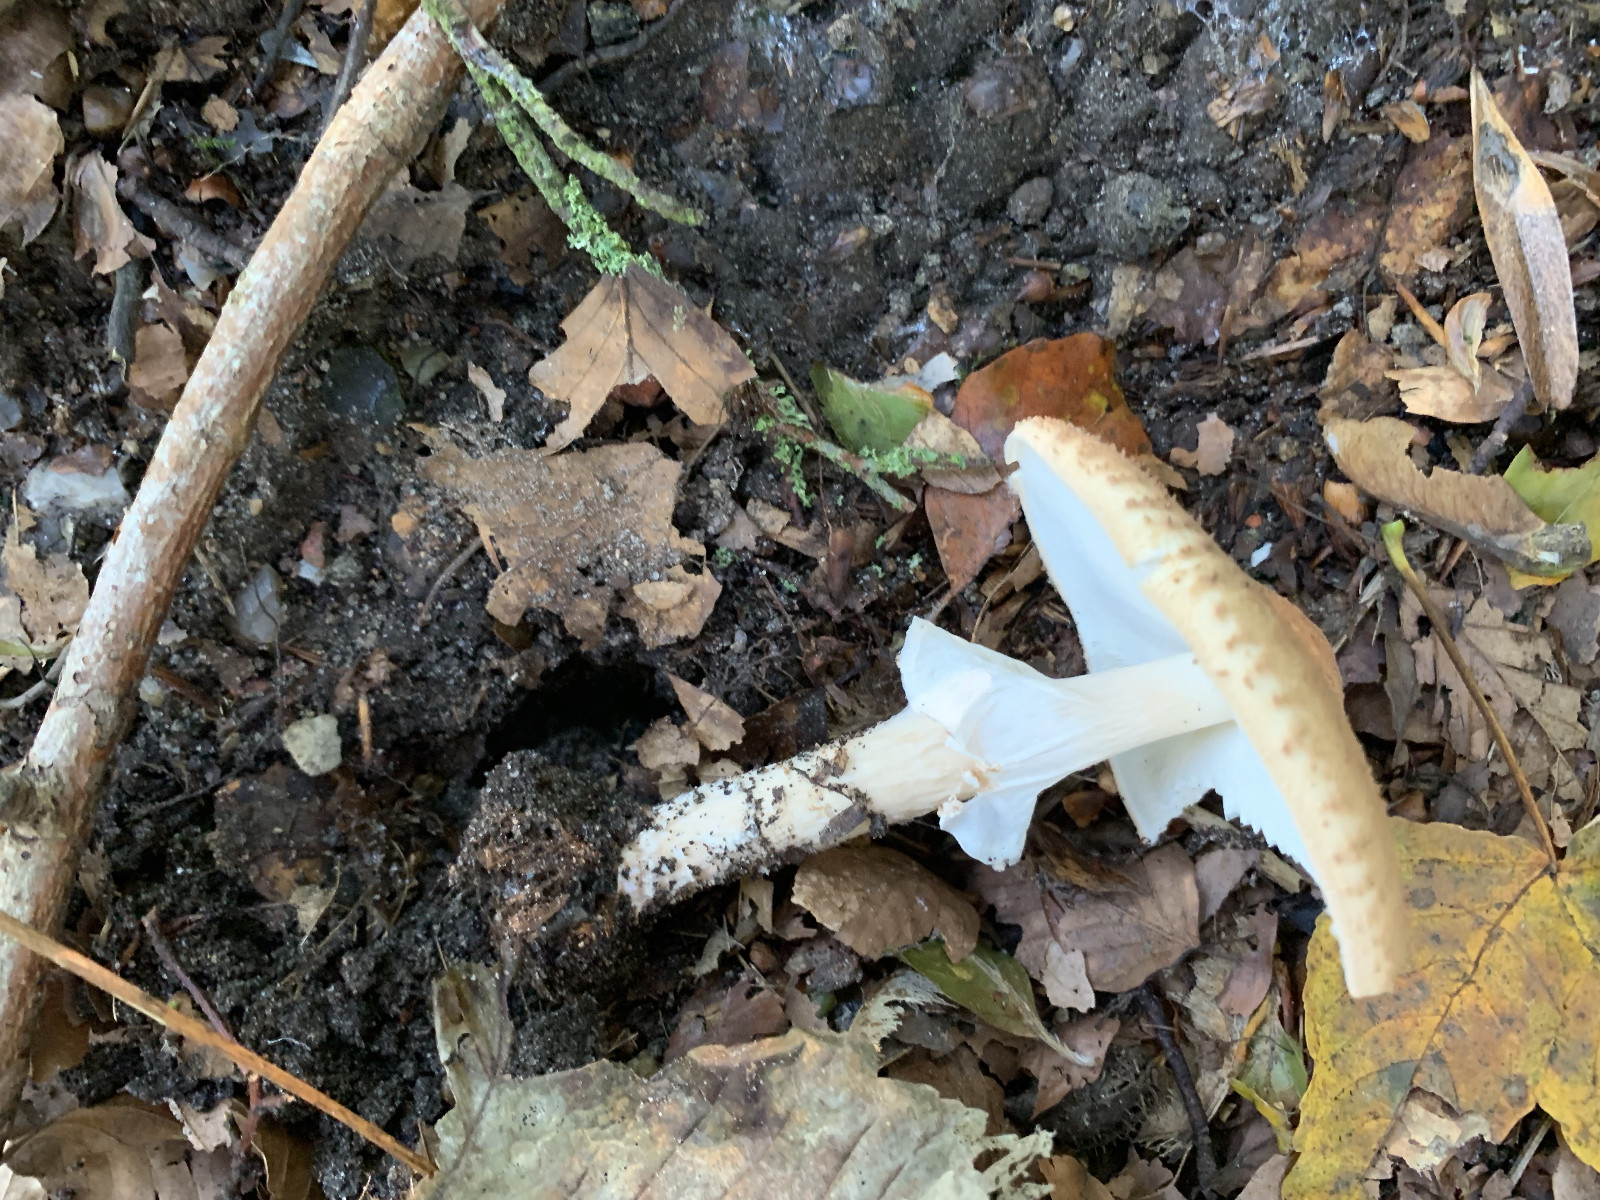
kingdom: Fungi
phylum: Basidiomycota
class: Agaricomycetes
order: Agaricales
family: Agaricaceae
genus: Echinoderma
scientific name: Echinoderma asperum
